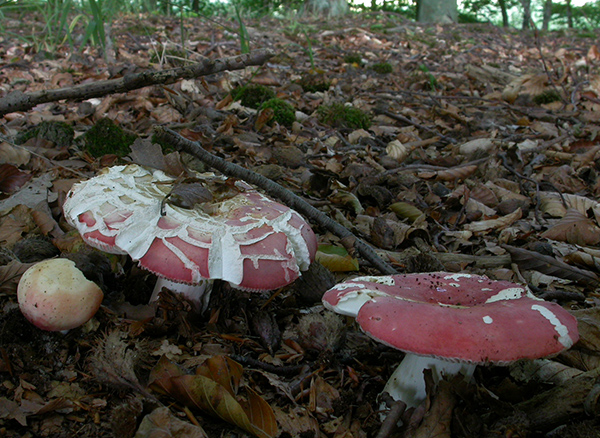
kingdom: Fungi
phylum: Basidiomycota
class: Agaricomycetes
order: Russulales
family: Russulaceae
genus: Russula
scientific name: Russula rosea
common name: fastkødet skørhat
